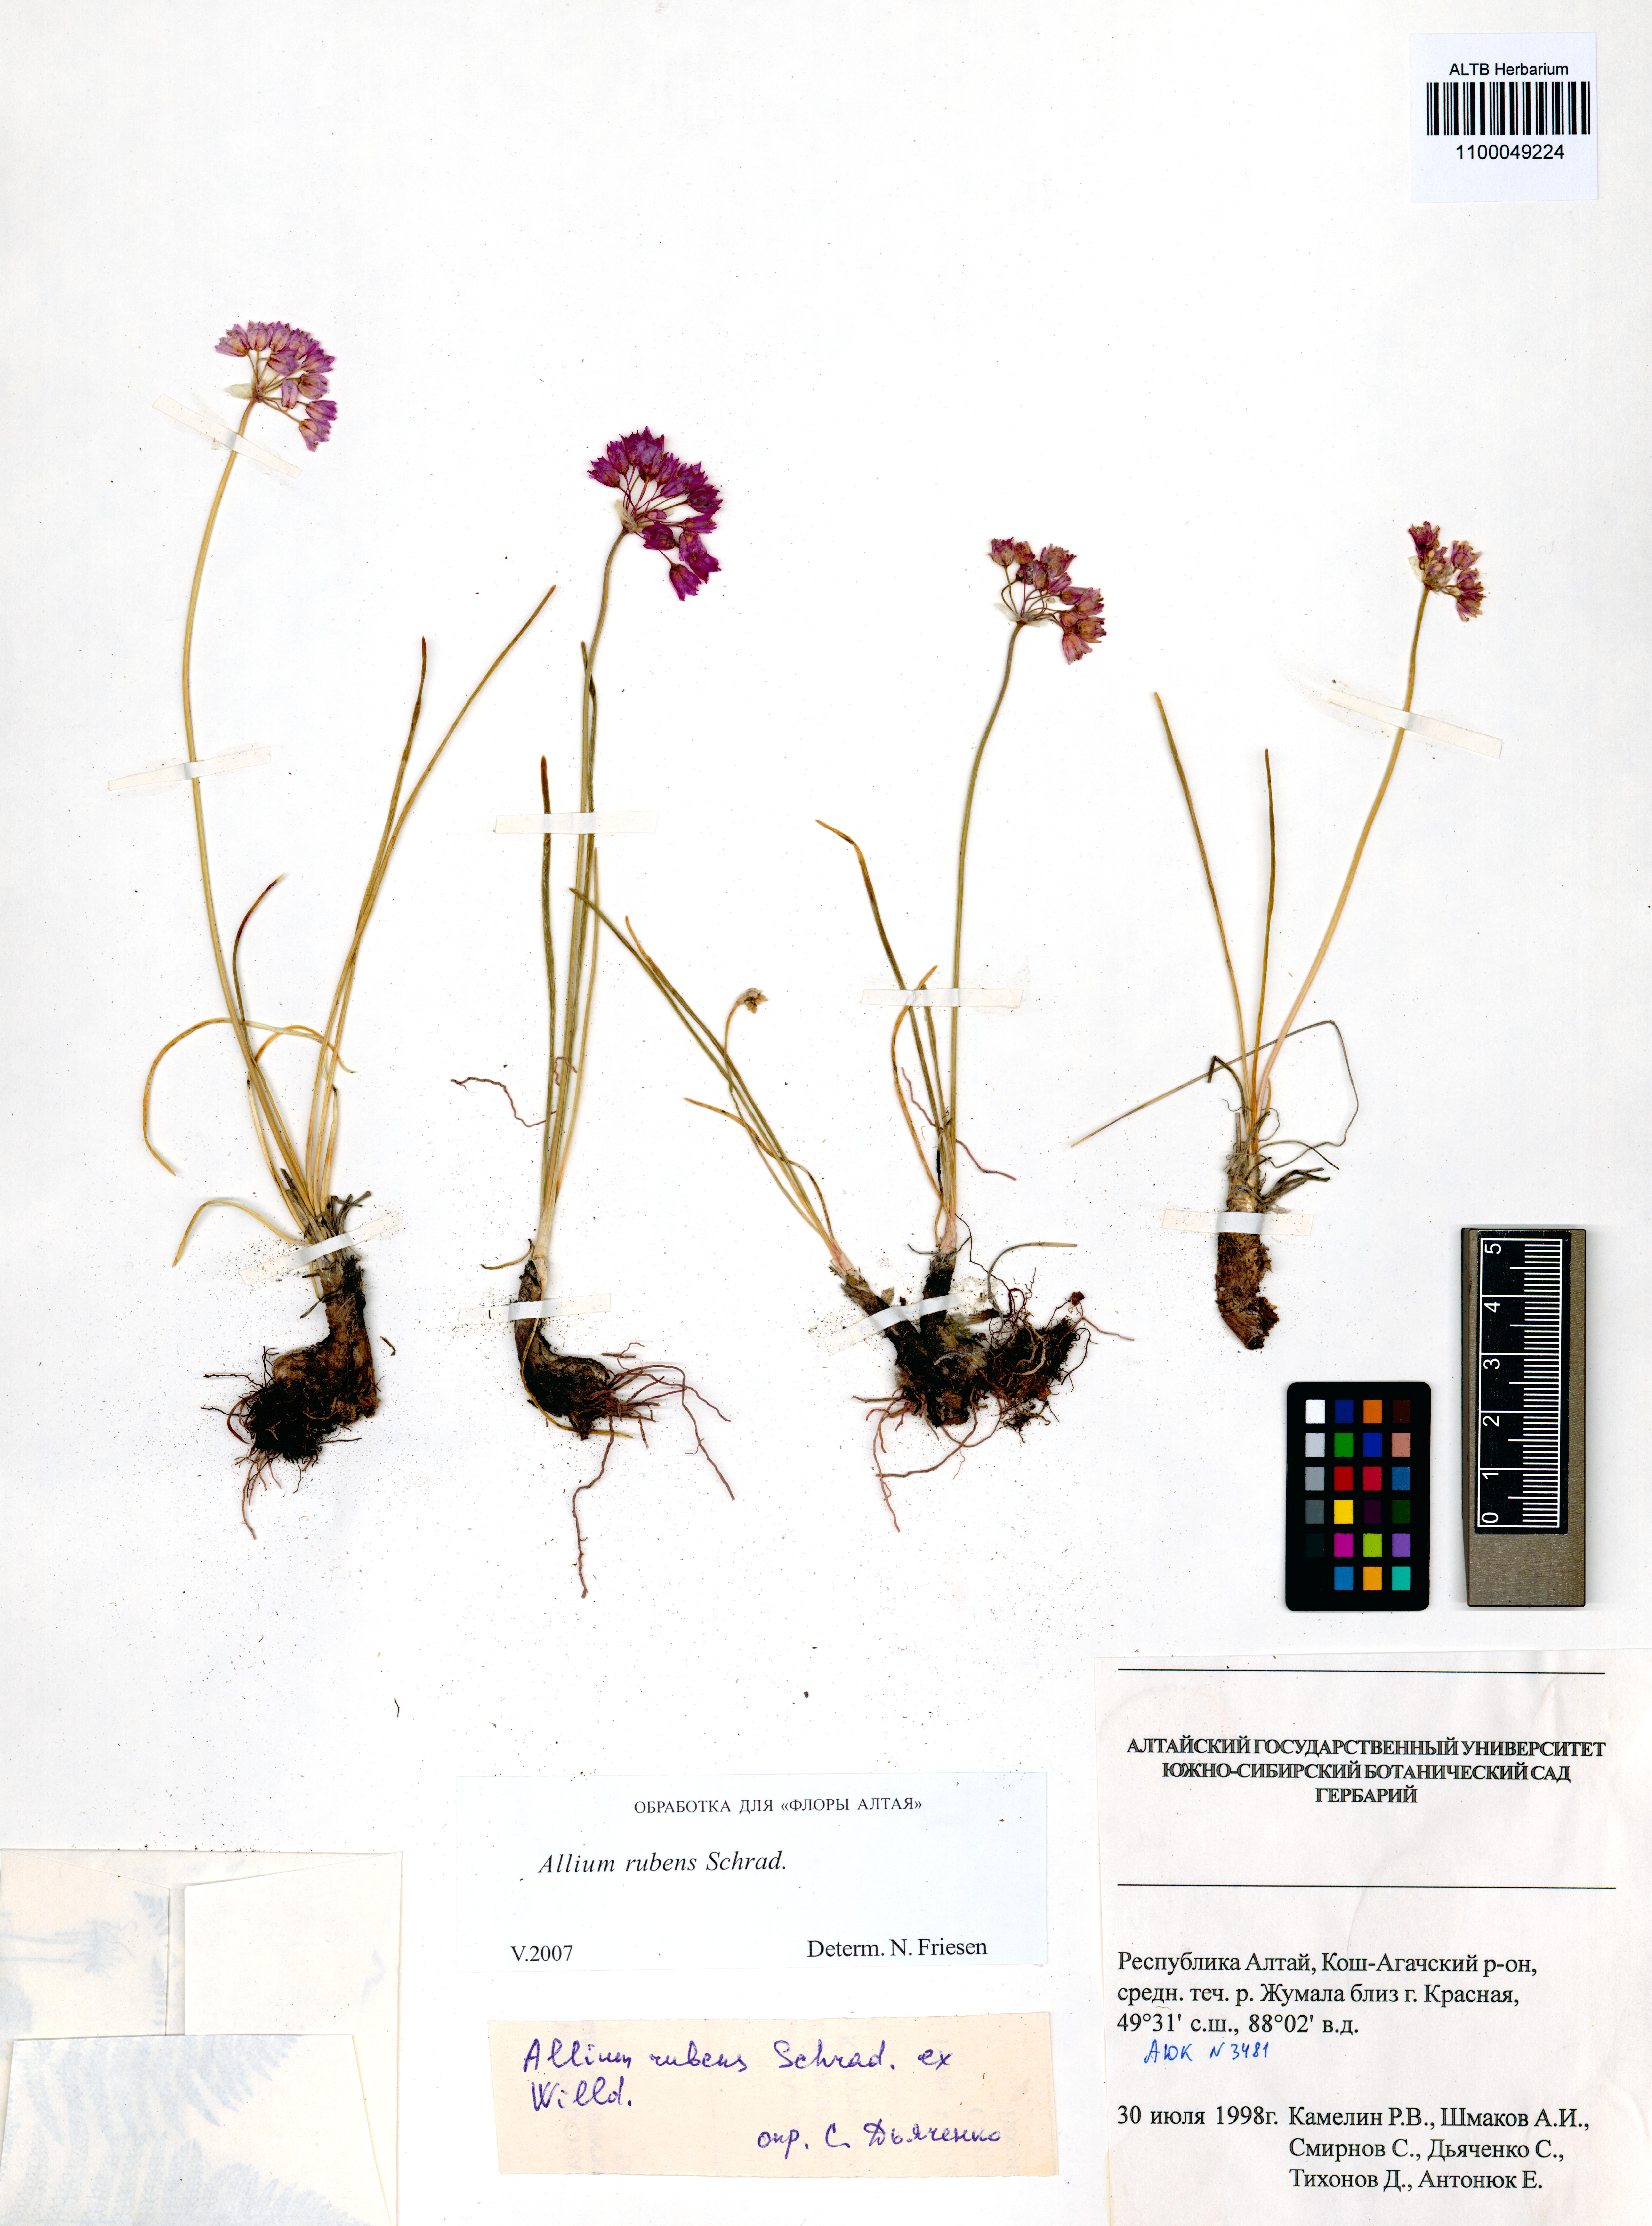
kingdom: Plantae
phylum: Tracheophyta
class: Liliopsida
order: Asparagales
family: Amaryllidaceae
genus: Allium
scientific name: Allium rubens
